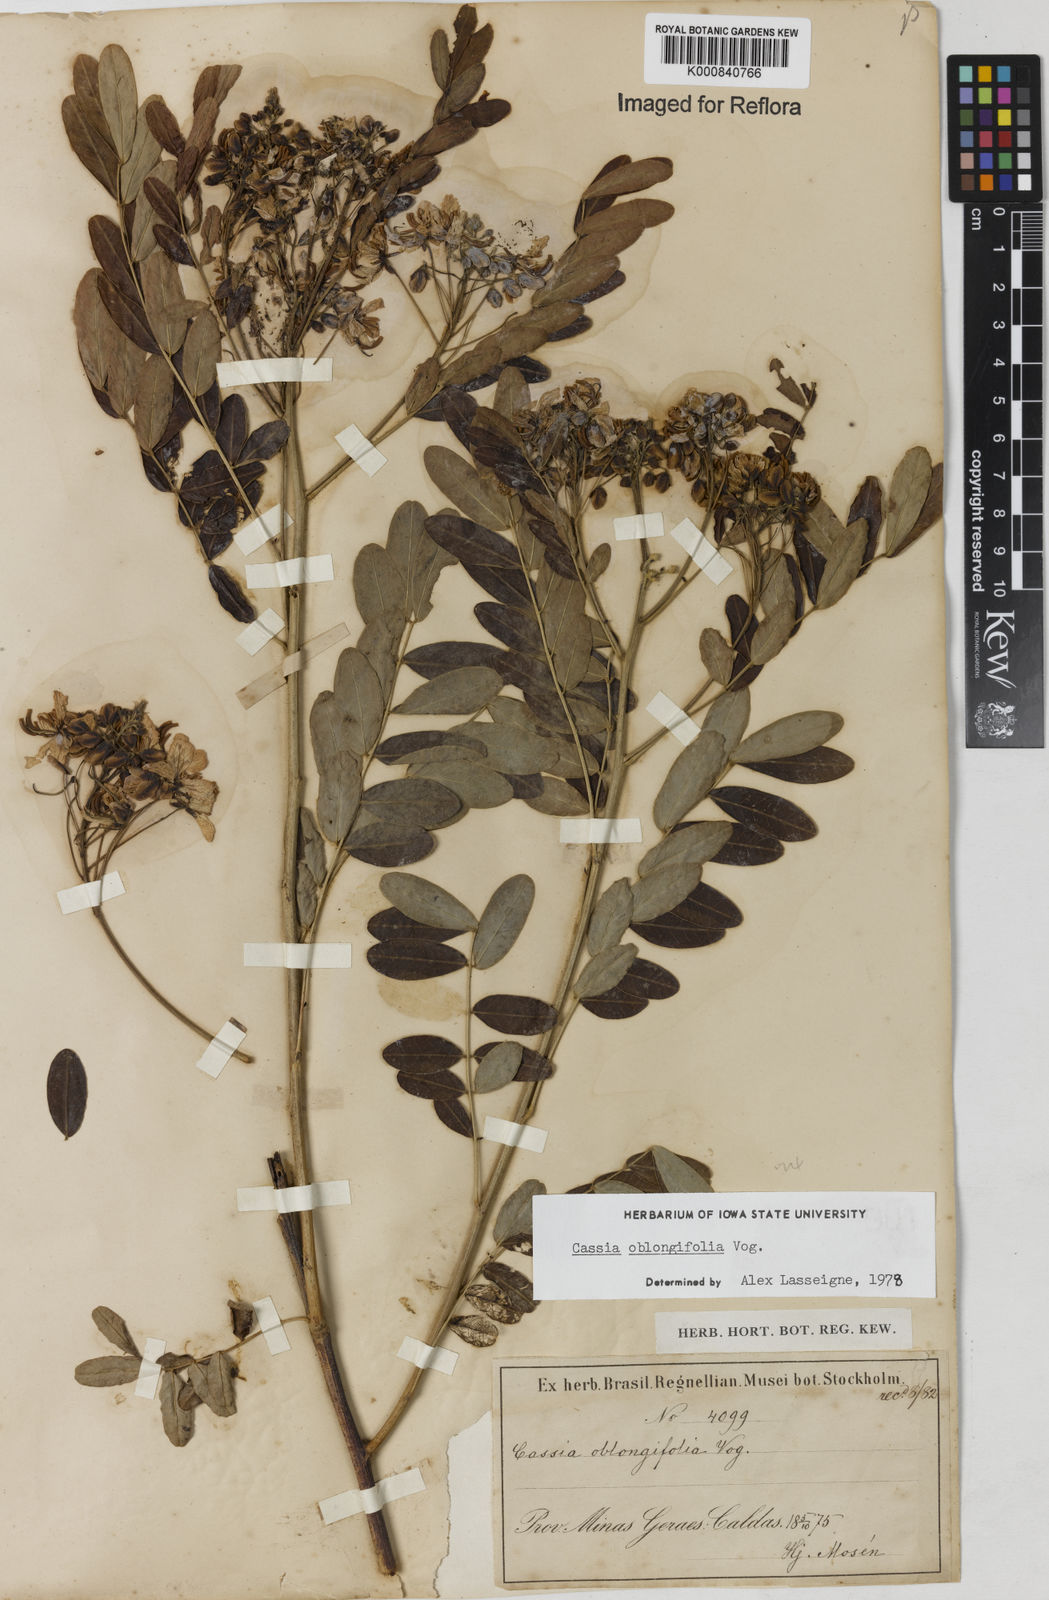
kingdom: Plantae
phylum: Tracheophyta
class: Magnoliopsida
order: Fabales
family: Fabaceae
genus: Senna
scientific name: Senna oblongifolia
